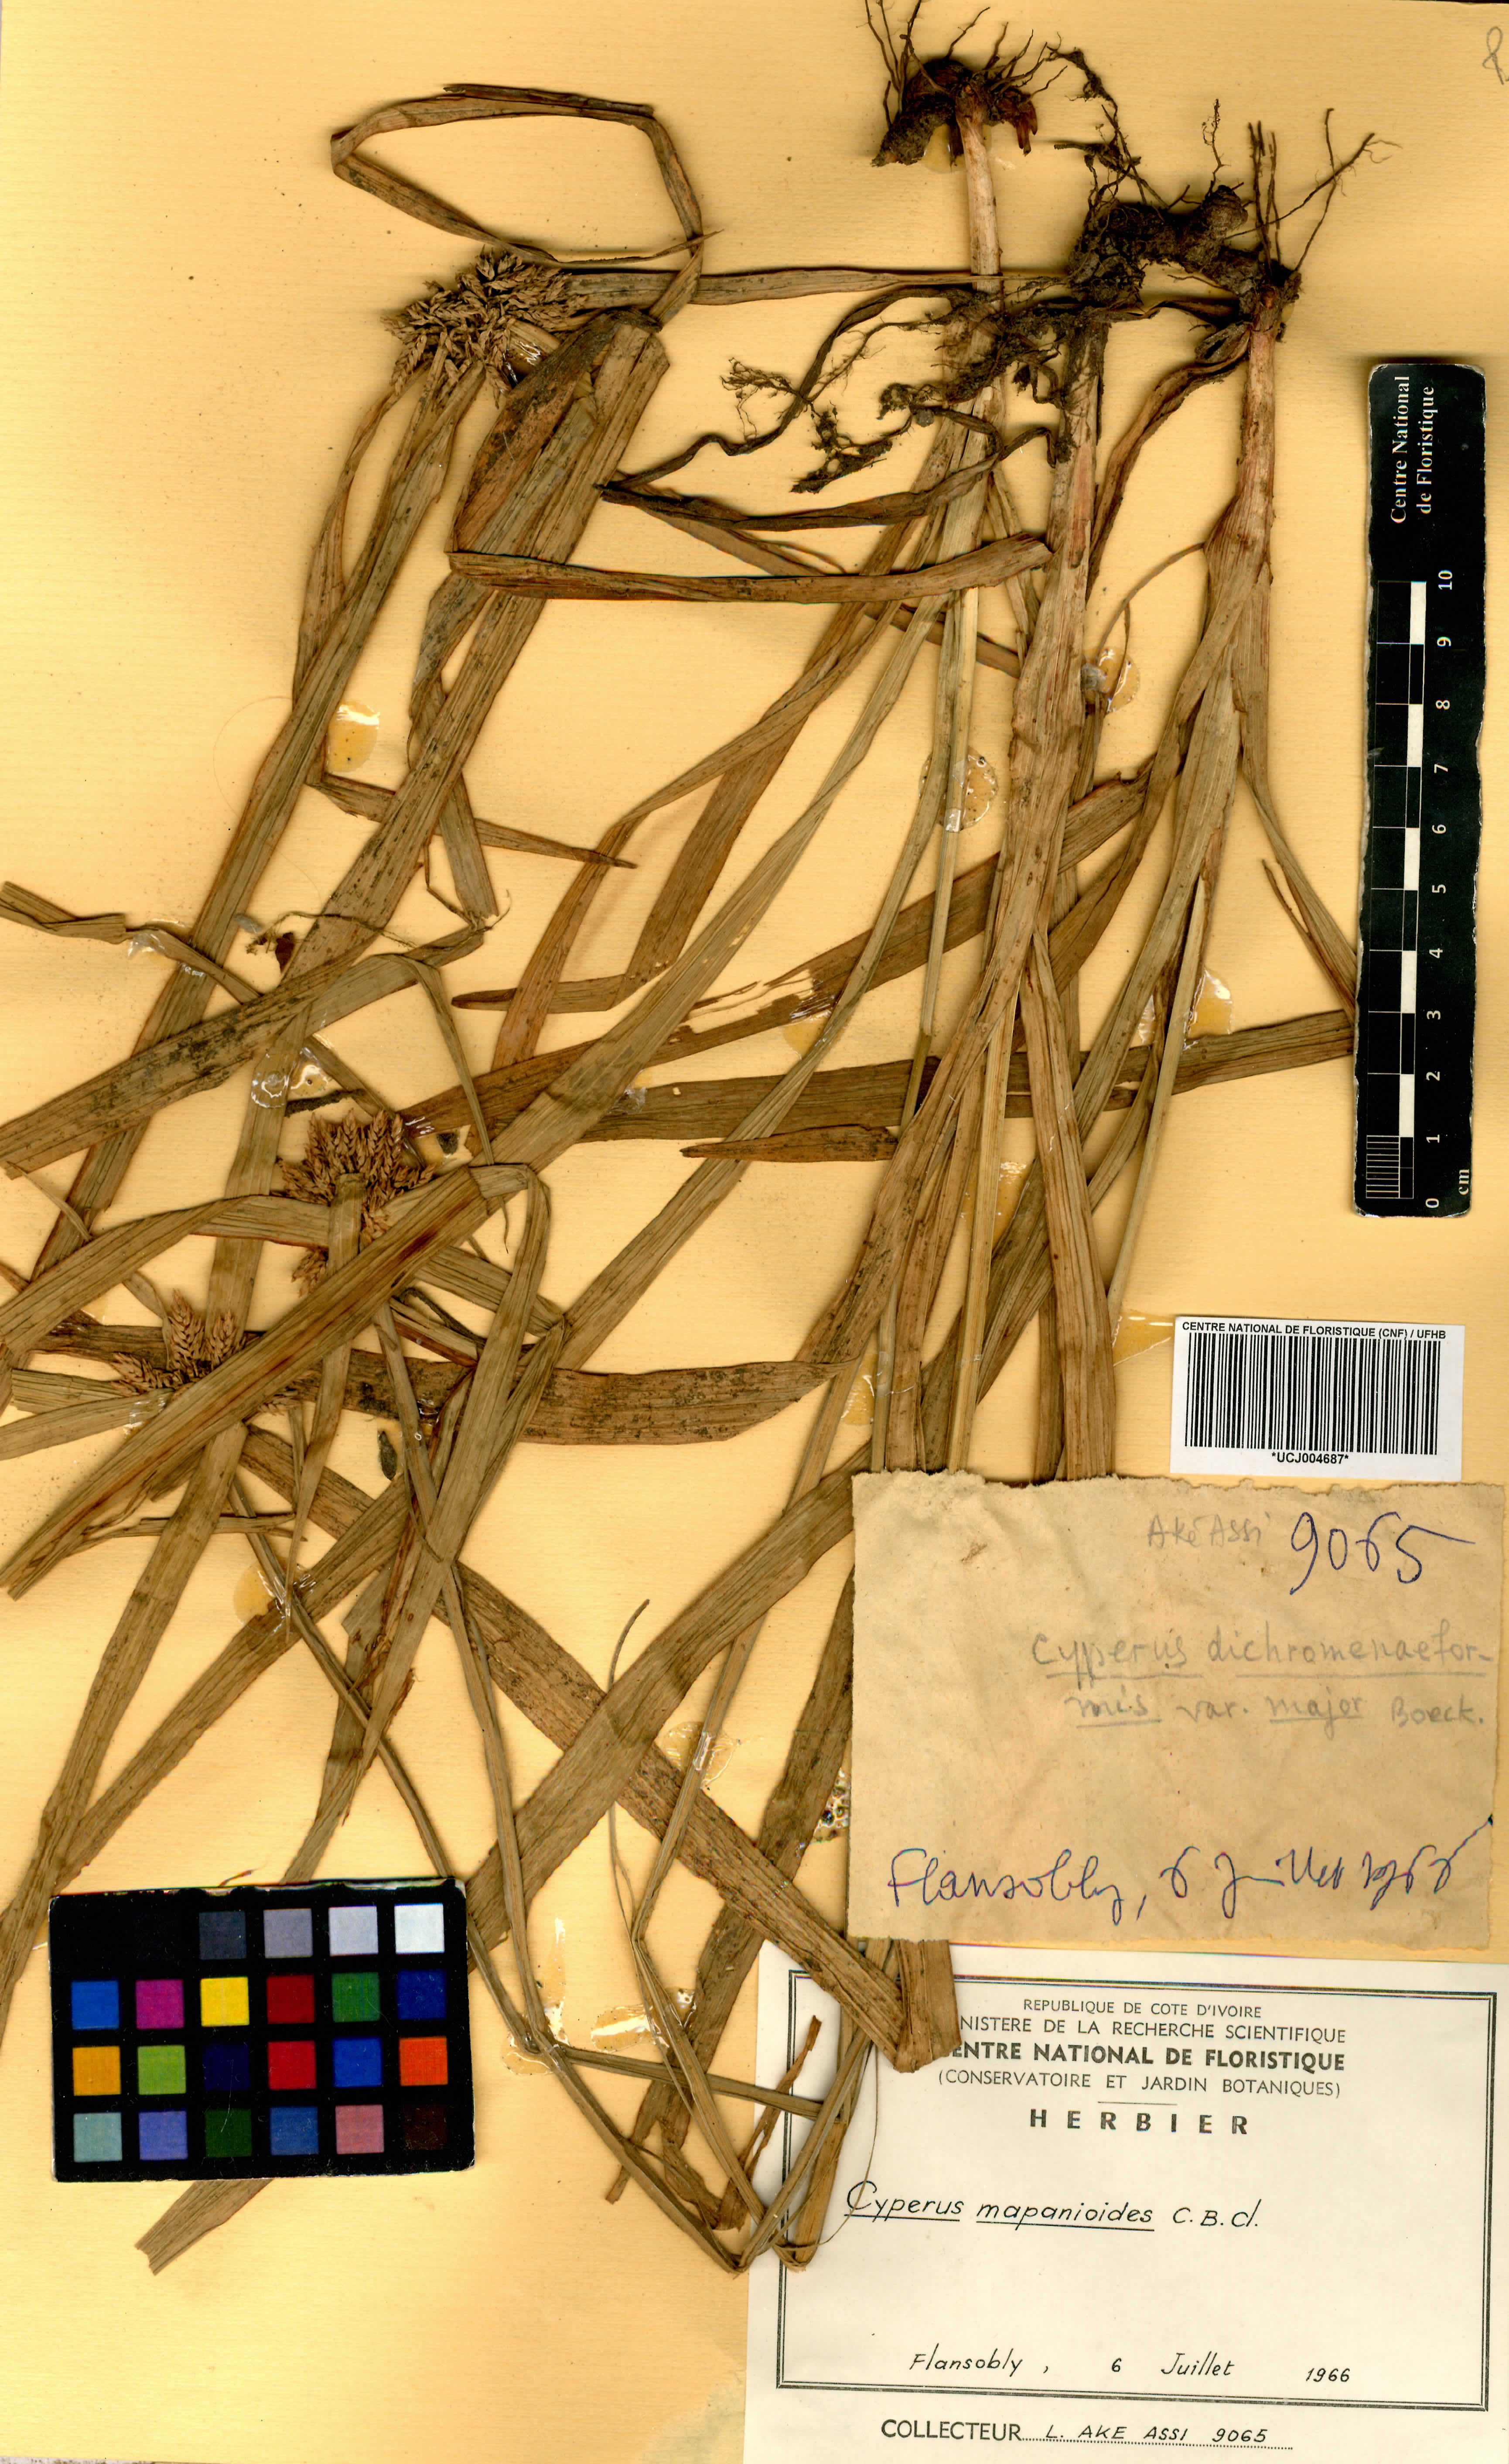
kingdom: Plantae
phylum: Tracheophyta
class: Liliopsida
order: Poales
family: Cyperaceae
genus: Cyperus
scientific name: Cyperus mapanioides
